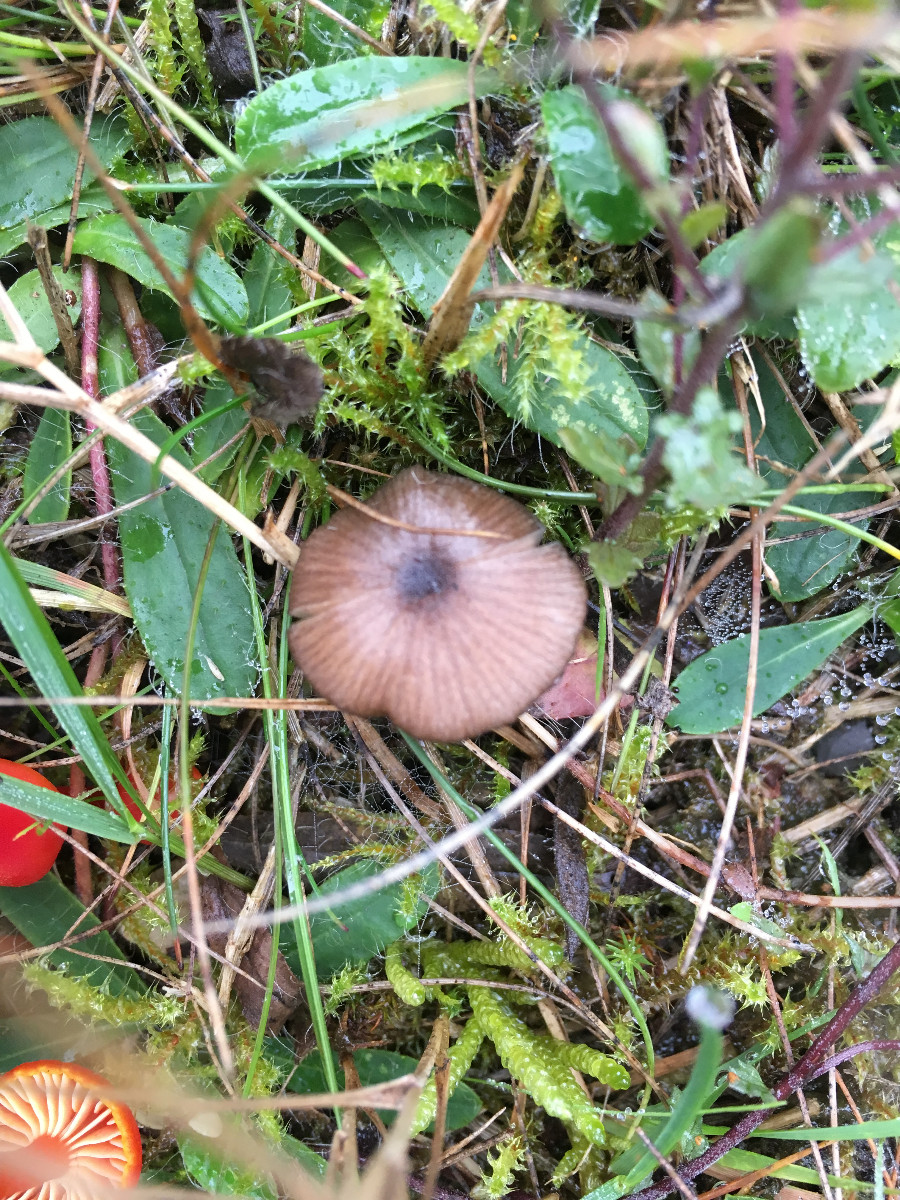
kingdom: Fungi
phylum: Basidiomycota
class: Agaricomycetes
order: Agaricales
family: Entolomataceae
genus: Entoloma
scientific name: Entoloma
